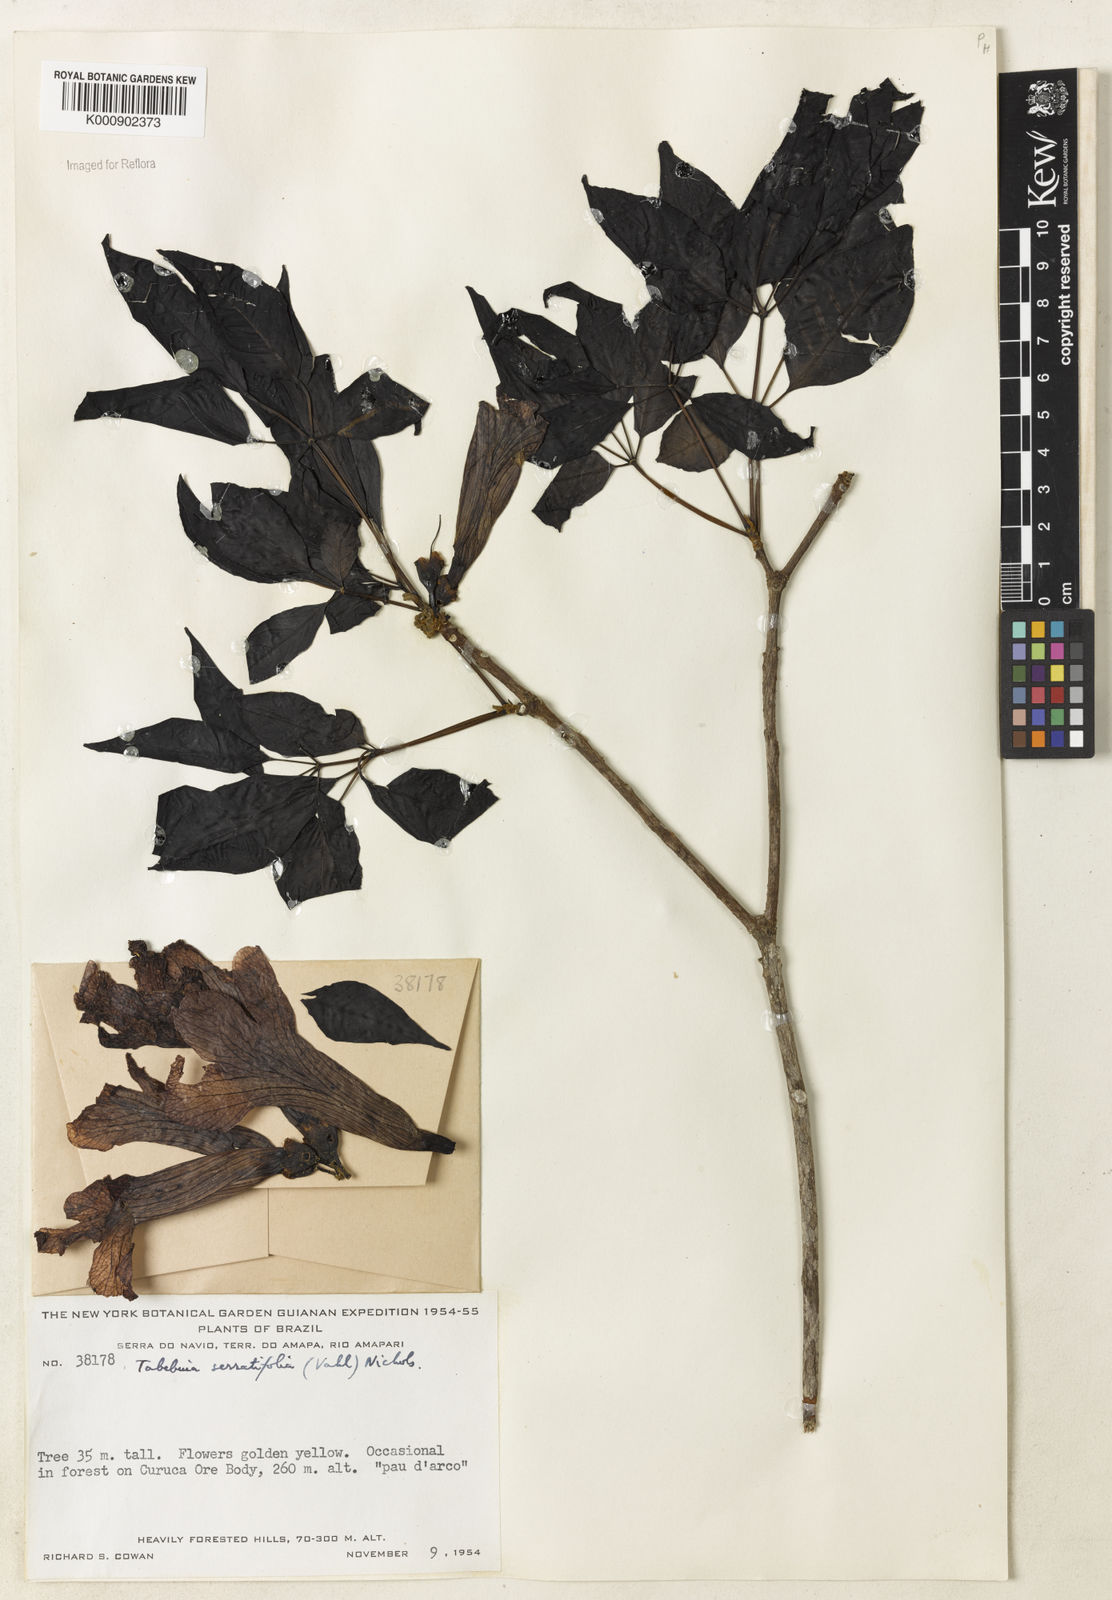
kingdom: Plantae
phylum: Tracheophyta
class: Magnoliopsida
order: Lamiales
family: Bignoniaceae
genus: Handroanthus
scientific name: Handroanthus serratifolius
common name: Yellow ipe
